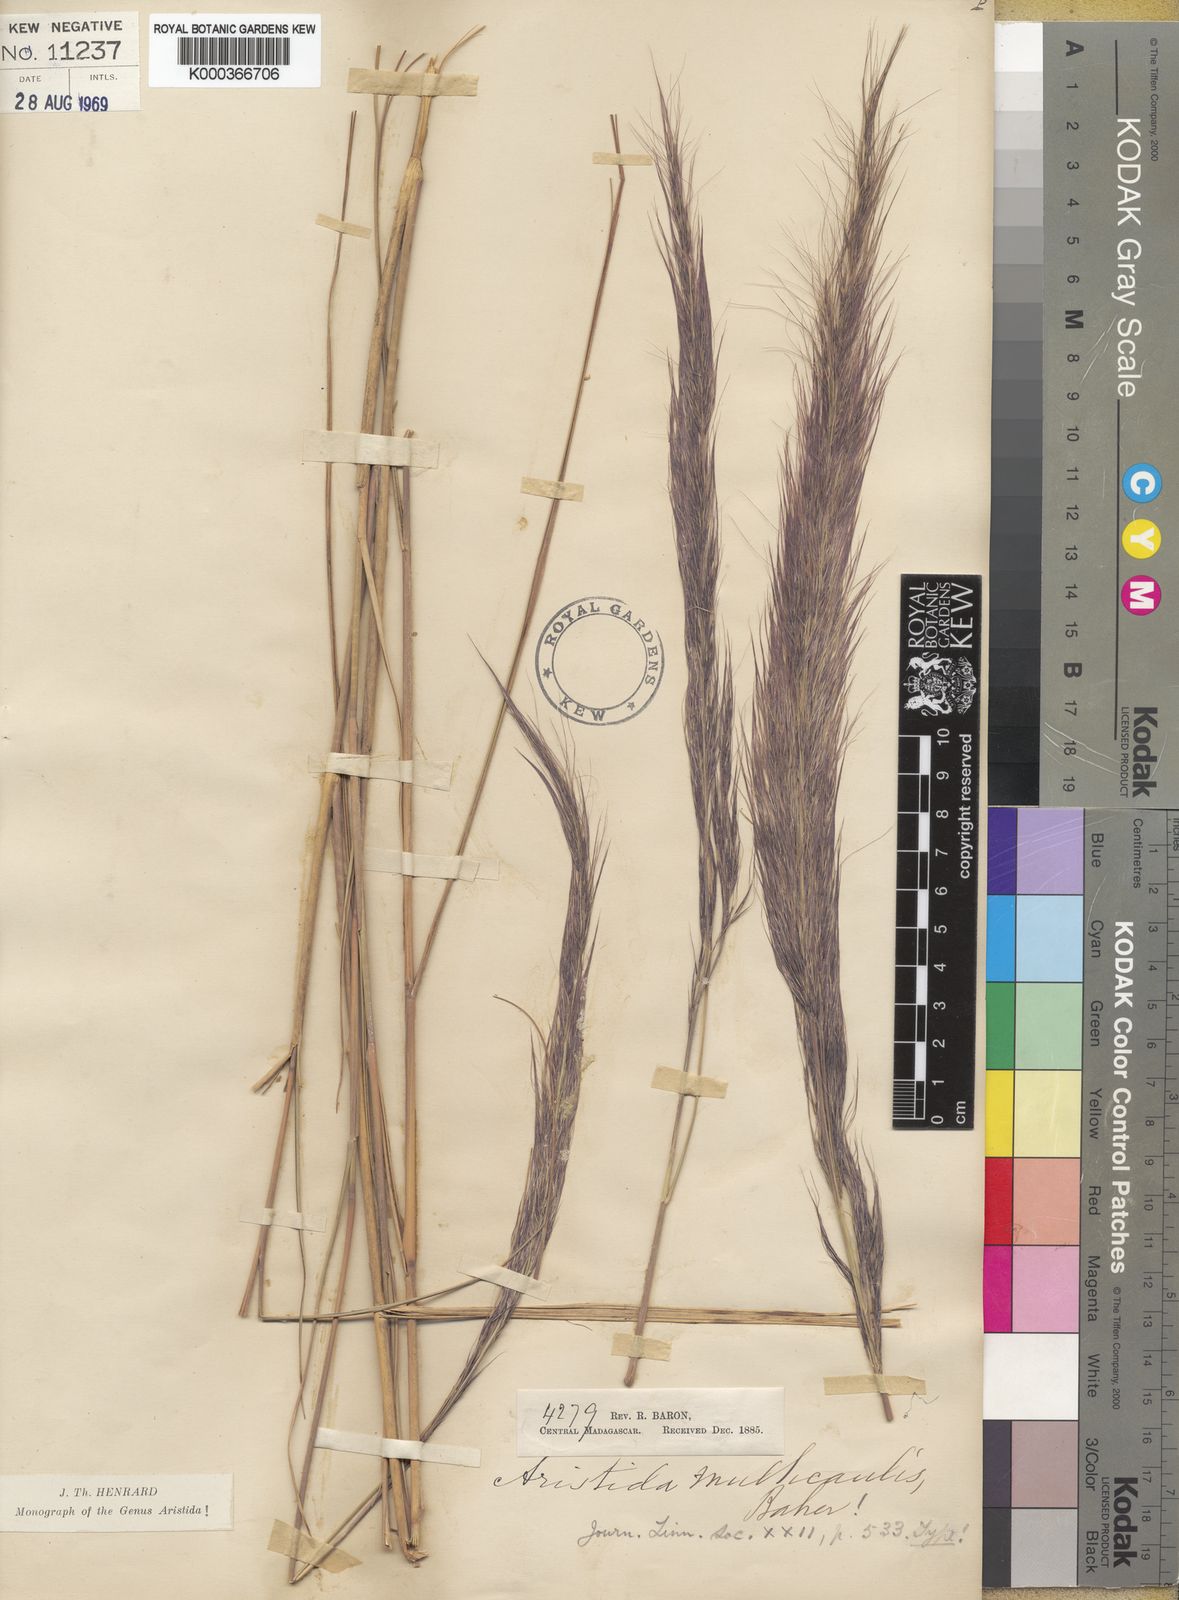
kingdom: Plantae
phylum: Tracheophyta
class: Liliopsida
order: Poales
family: Poaceae
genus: Aristida
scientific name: Aristida rufescens
